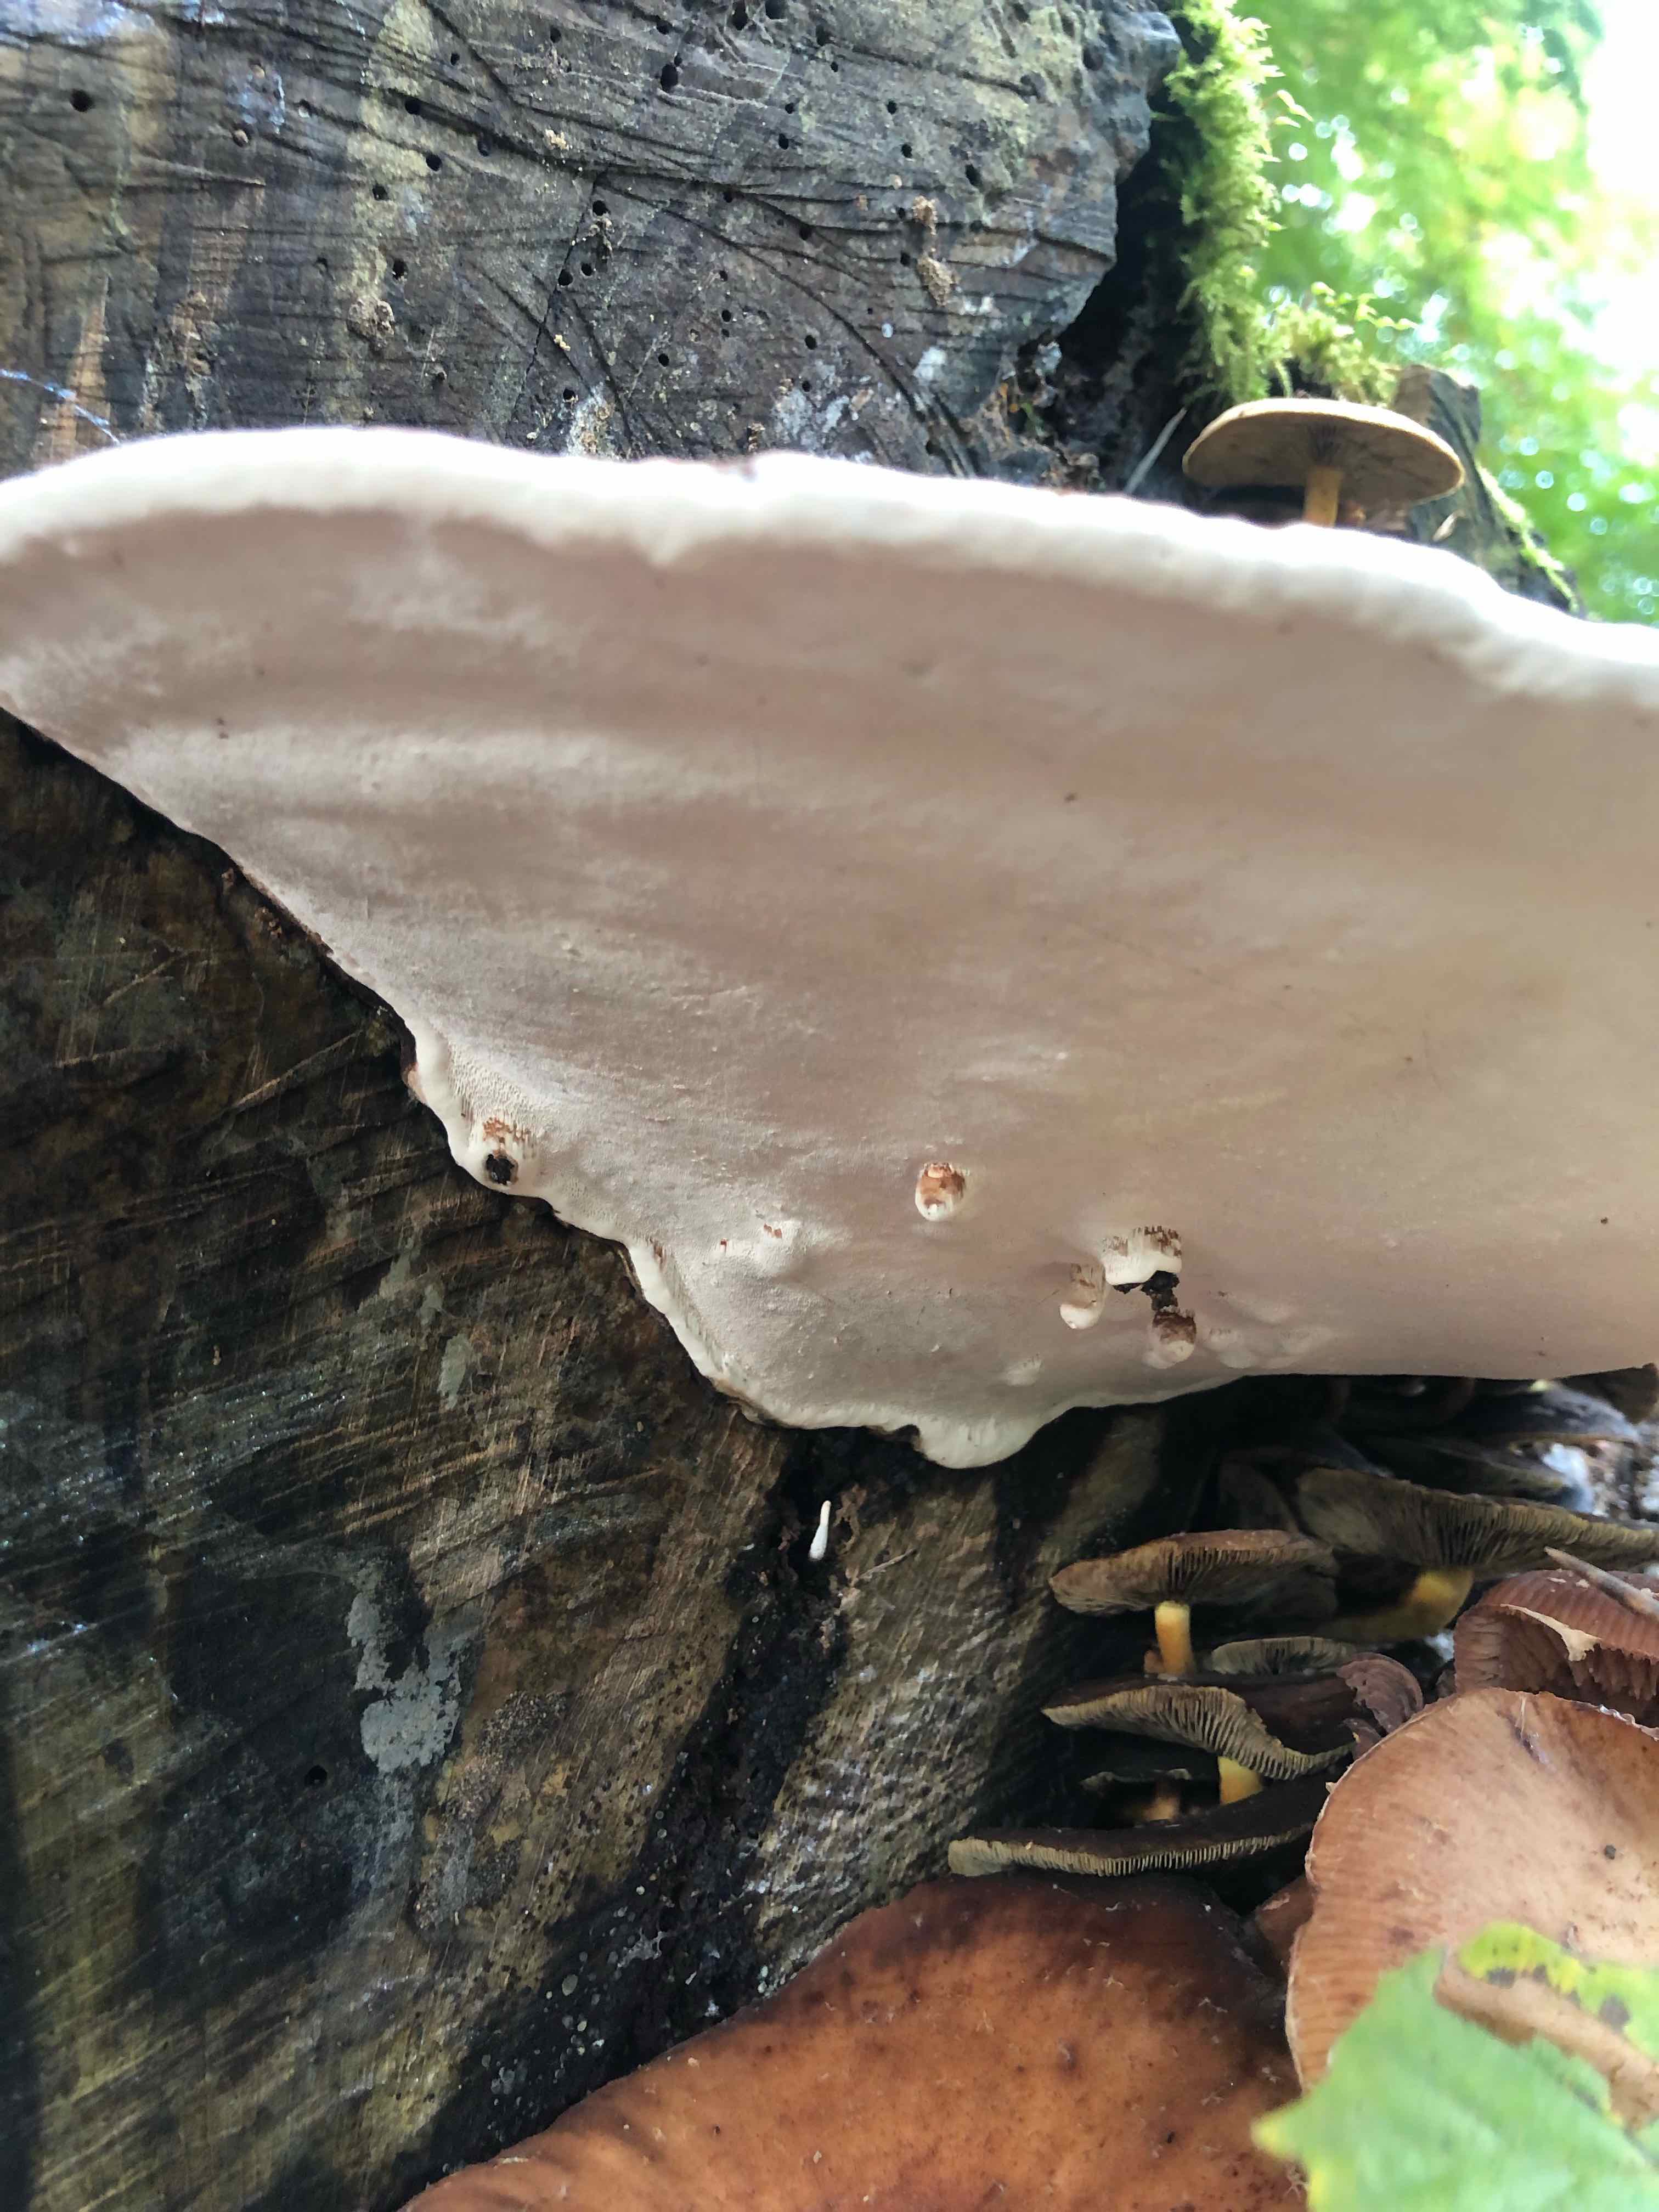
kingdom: Fungi
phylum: Basidiomycota
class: Agaricomycetes
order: Polyporales
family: Polyporaceae
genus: Ganoderma
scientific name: Ganoderma applanatum
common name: flad lakporesvamp
